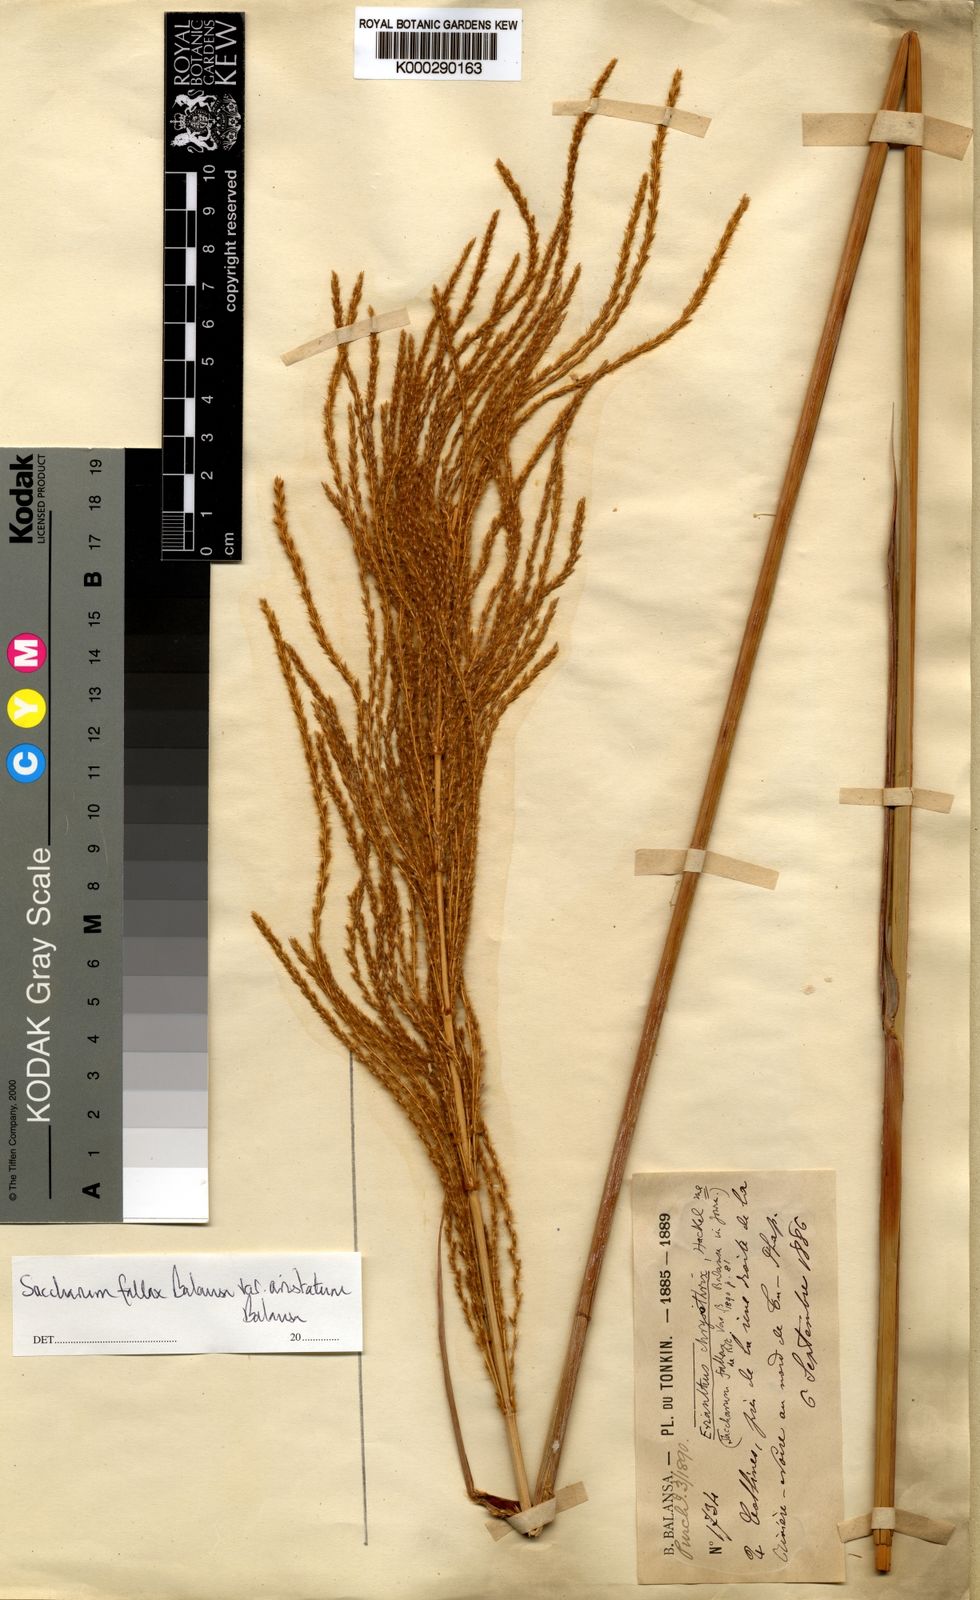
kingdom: Plantae
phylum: Tracheophyta
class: Liliopsida
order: Poales
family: Poaceae
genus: Narenga
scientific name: Narenga fallax
